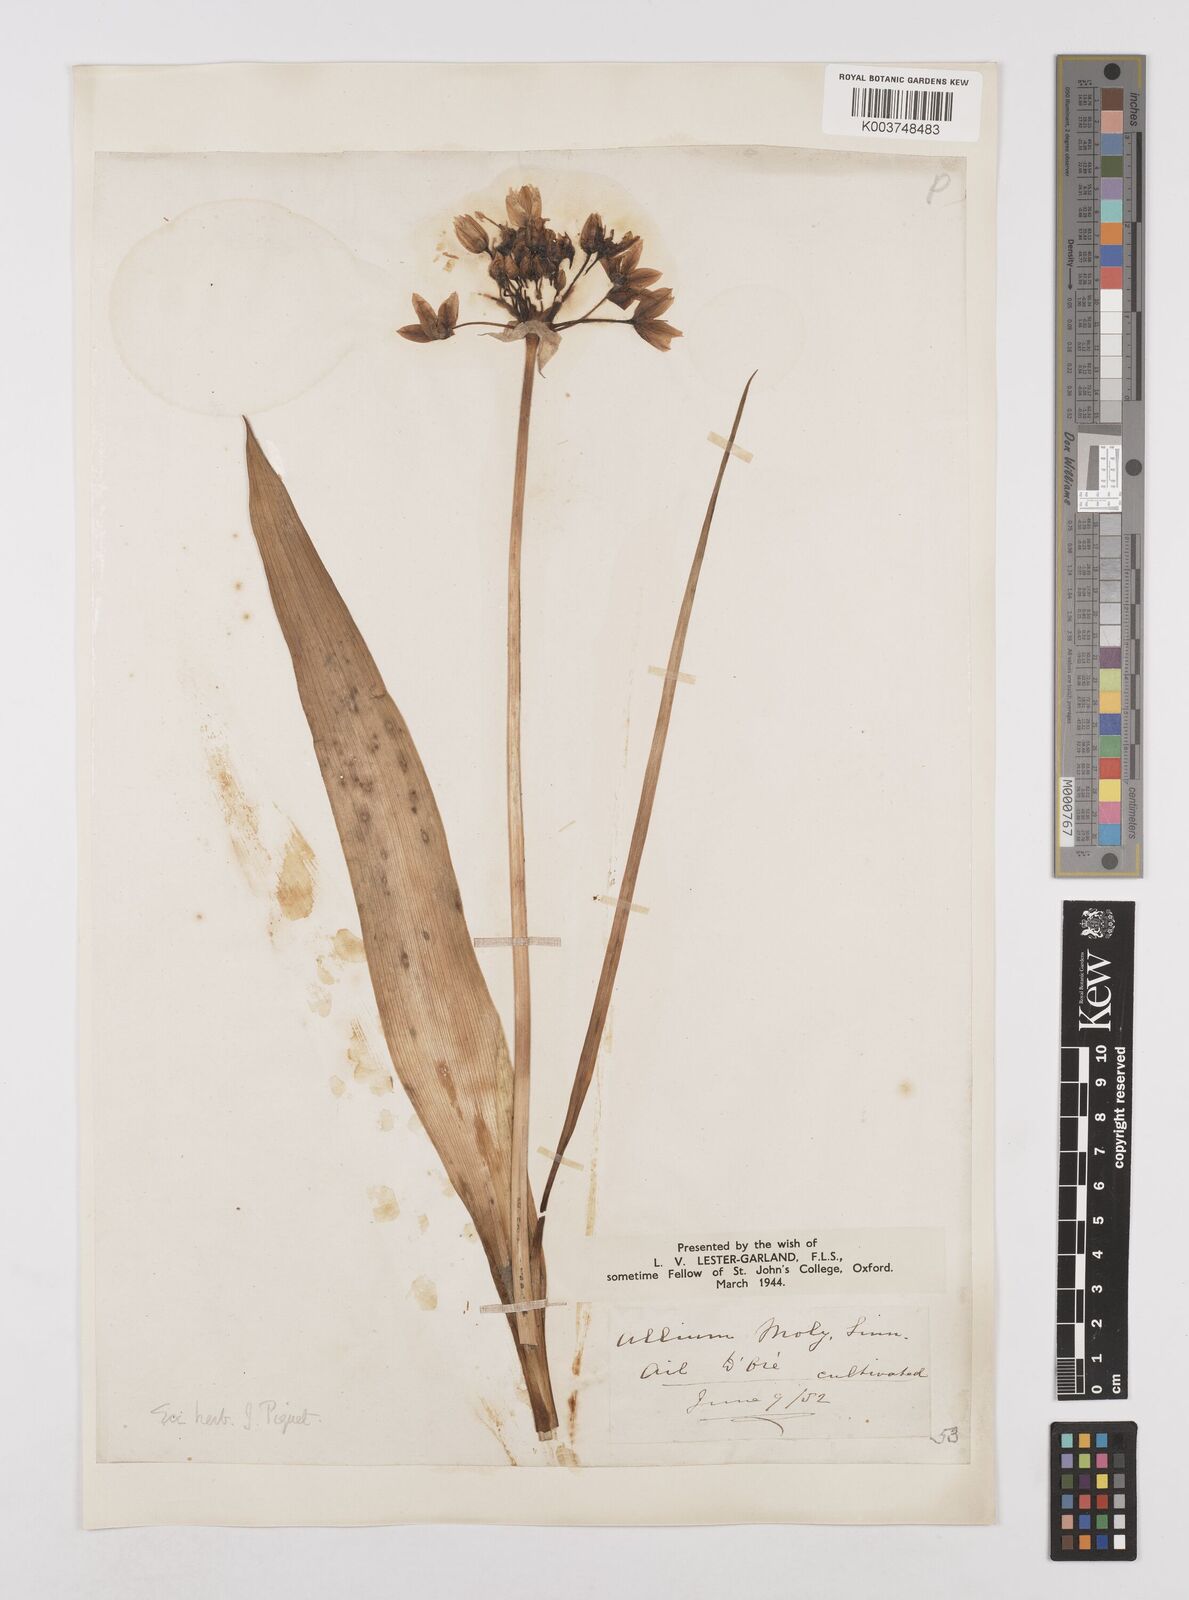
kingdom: Plantae
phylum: Tracheophyta
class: Liliopsida
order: Asparagales
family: Amaryllidaceae
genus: Allium
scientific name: Allium moly
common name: Yellow garlic
